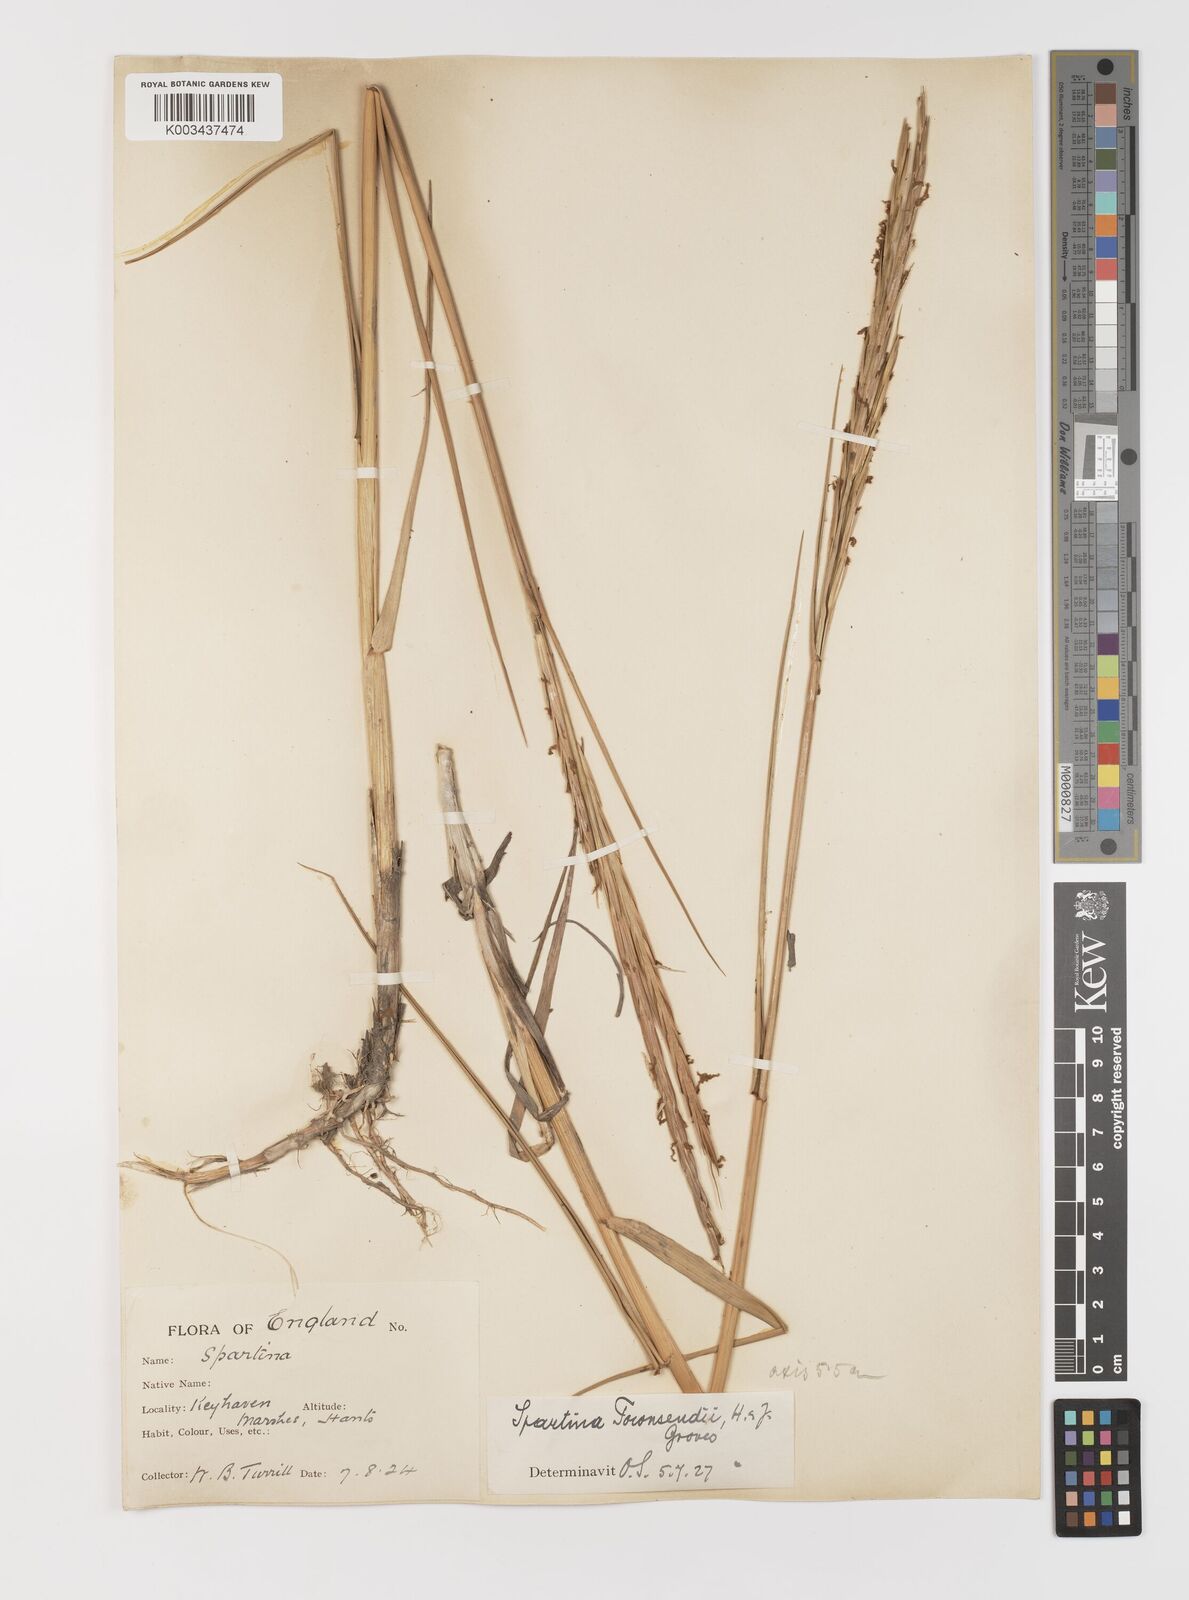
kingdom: Plantae
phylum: Tracheophyta
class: Liliopsida
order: Poales
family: Poaceae
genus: Sporobolus
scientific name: Sporobolus anglicus
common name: English cordgrass
